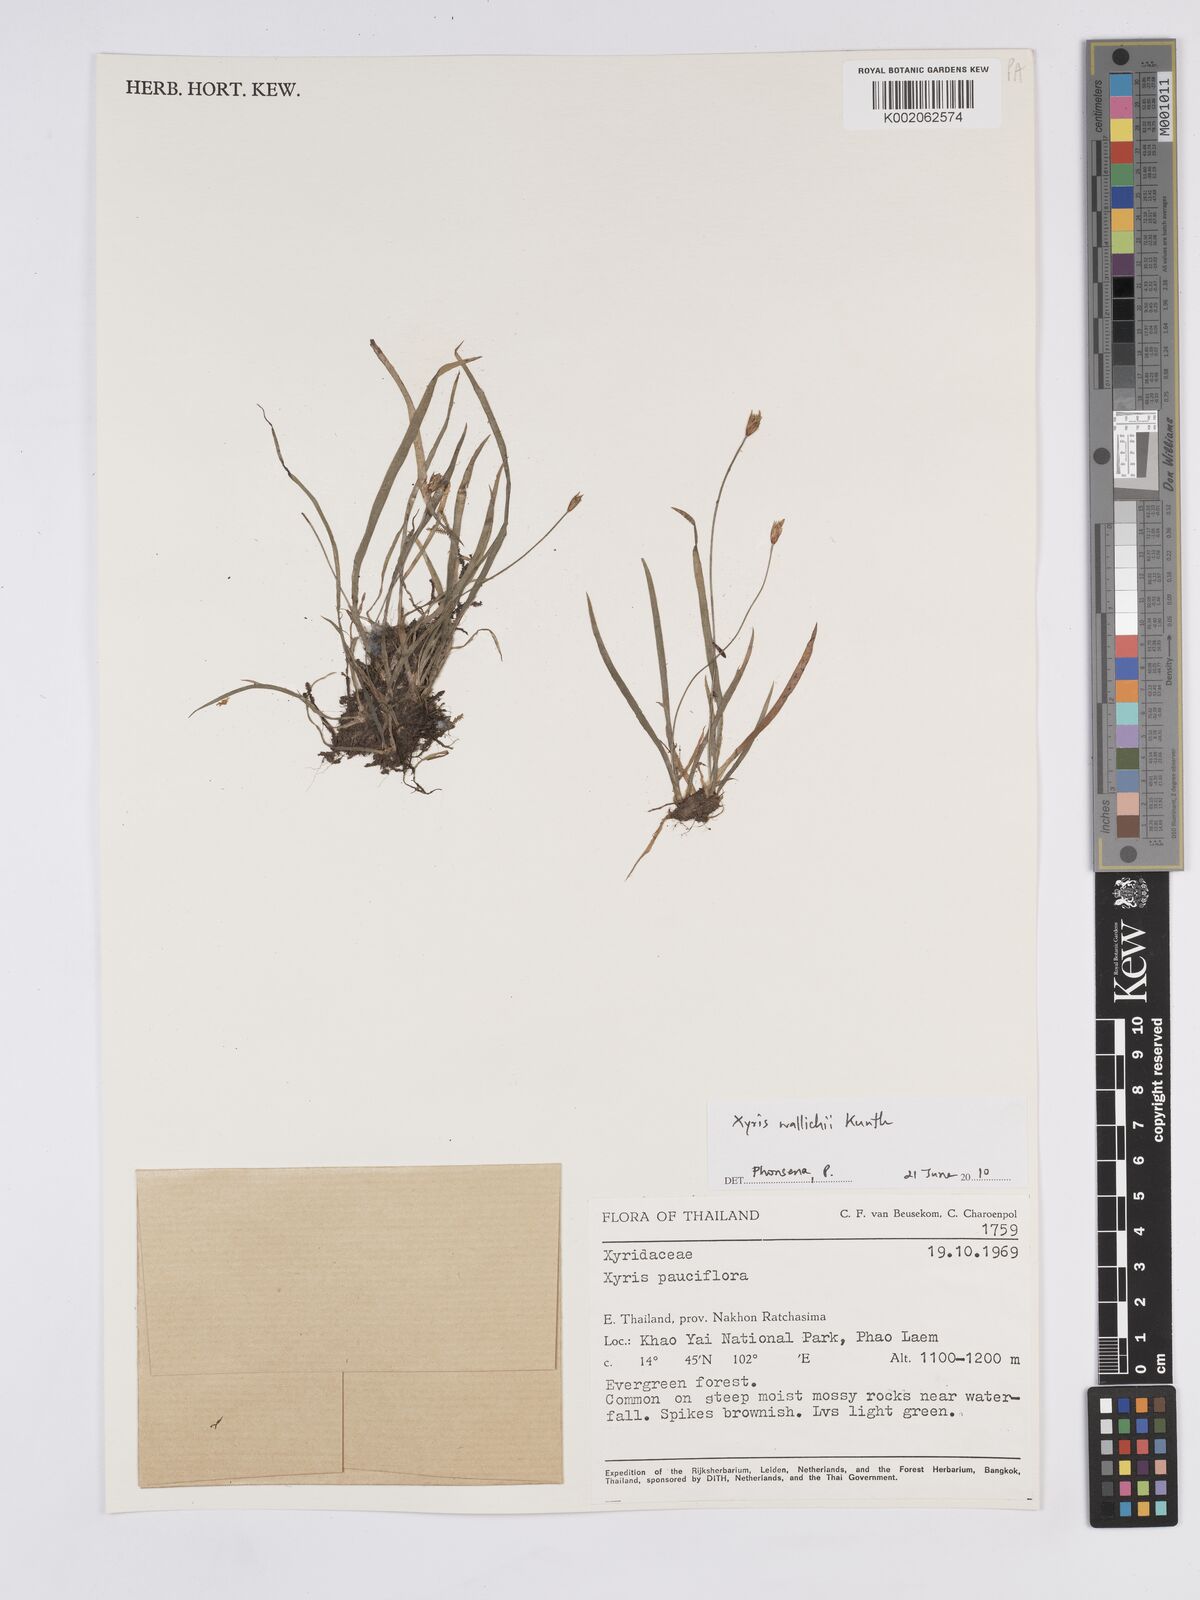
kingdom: Plantae
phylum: Tracheophyta
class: Liliopsida
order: Poales
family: Xyridaceae
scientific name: Xyridaceae
